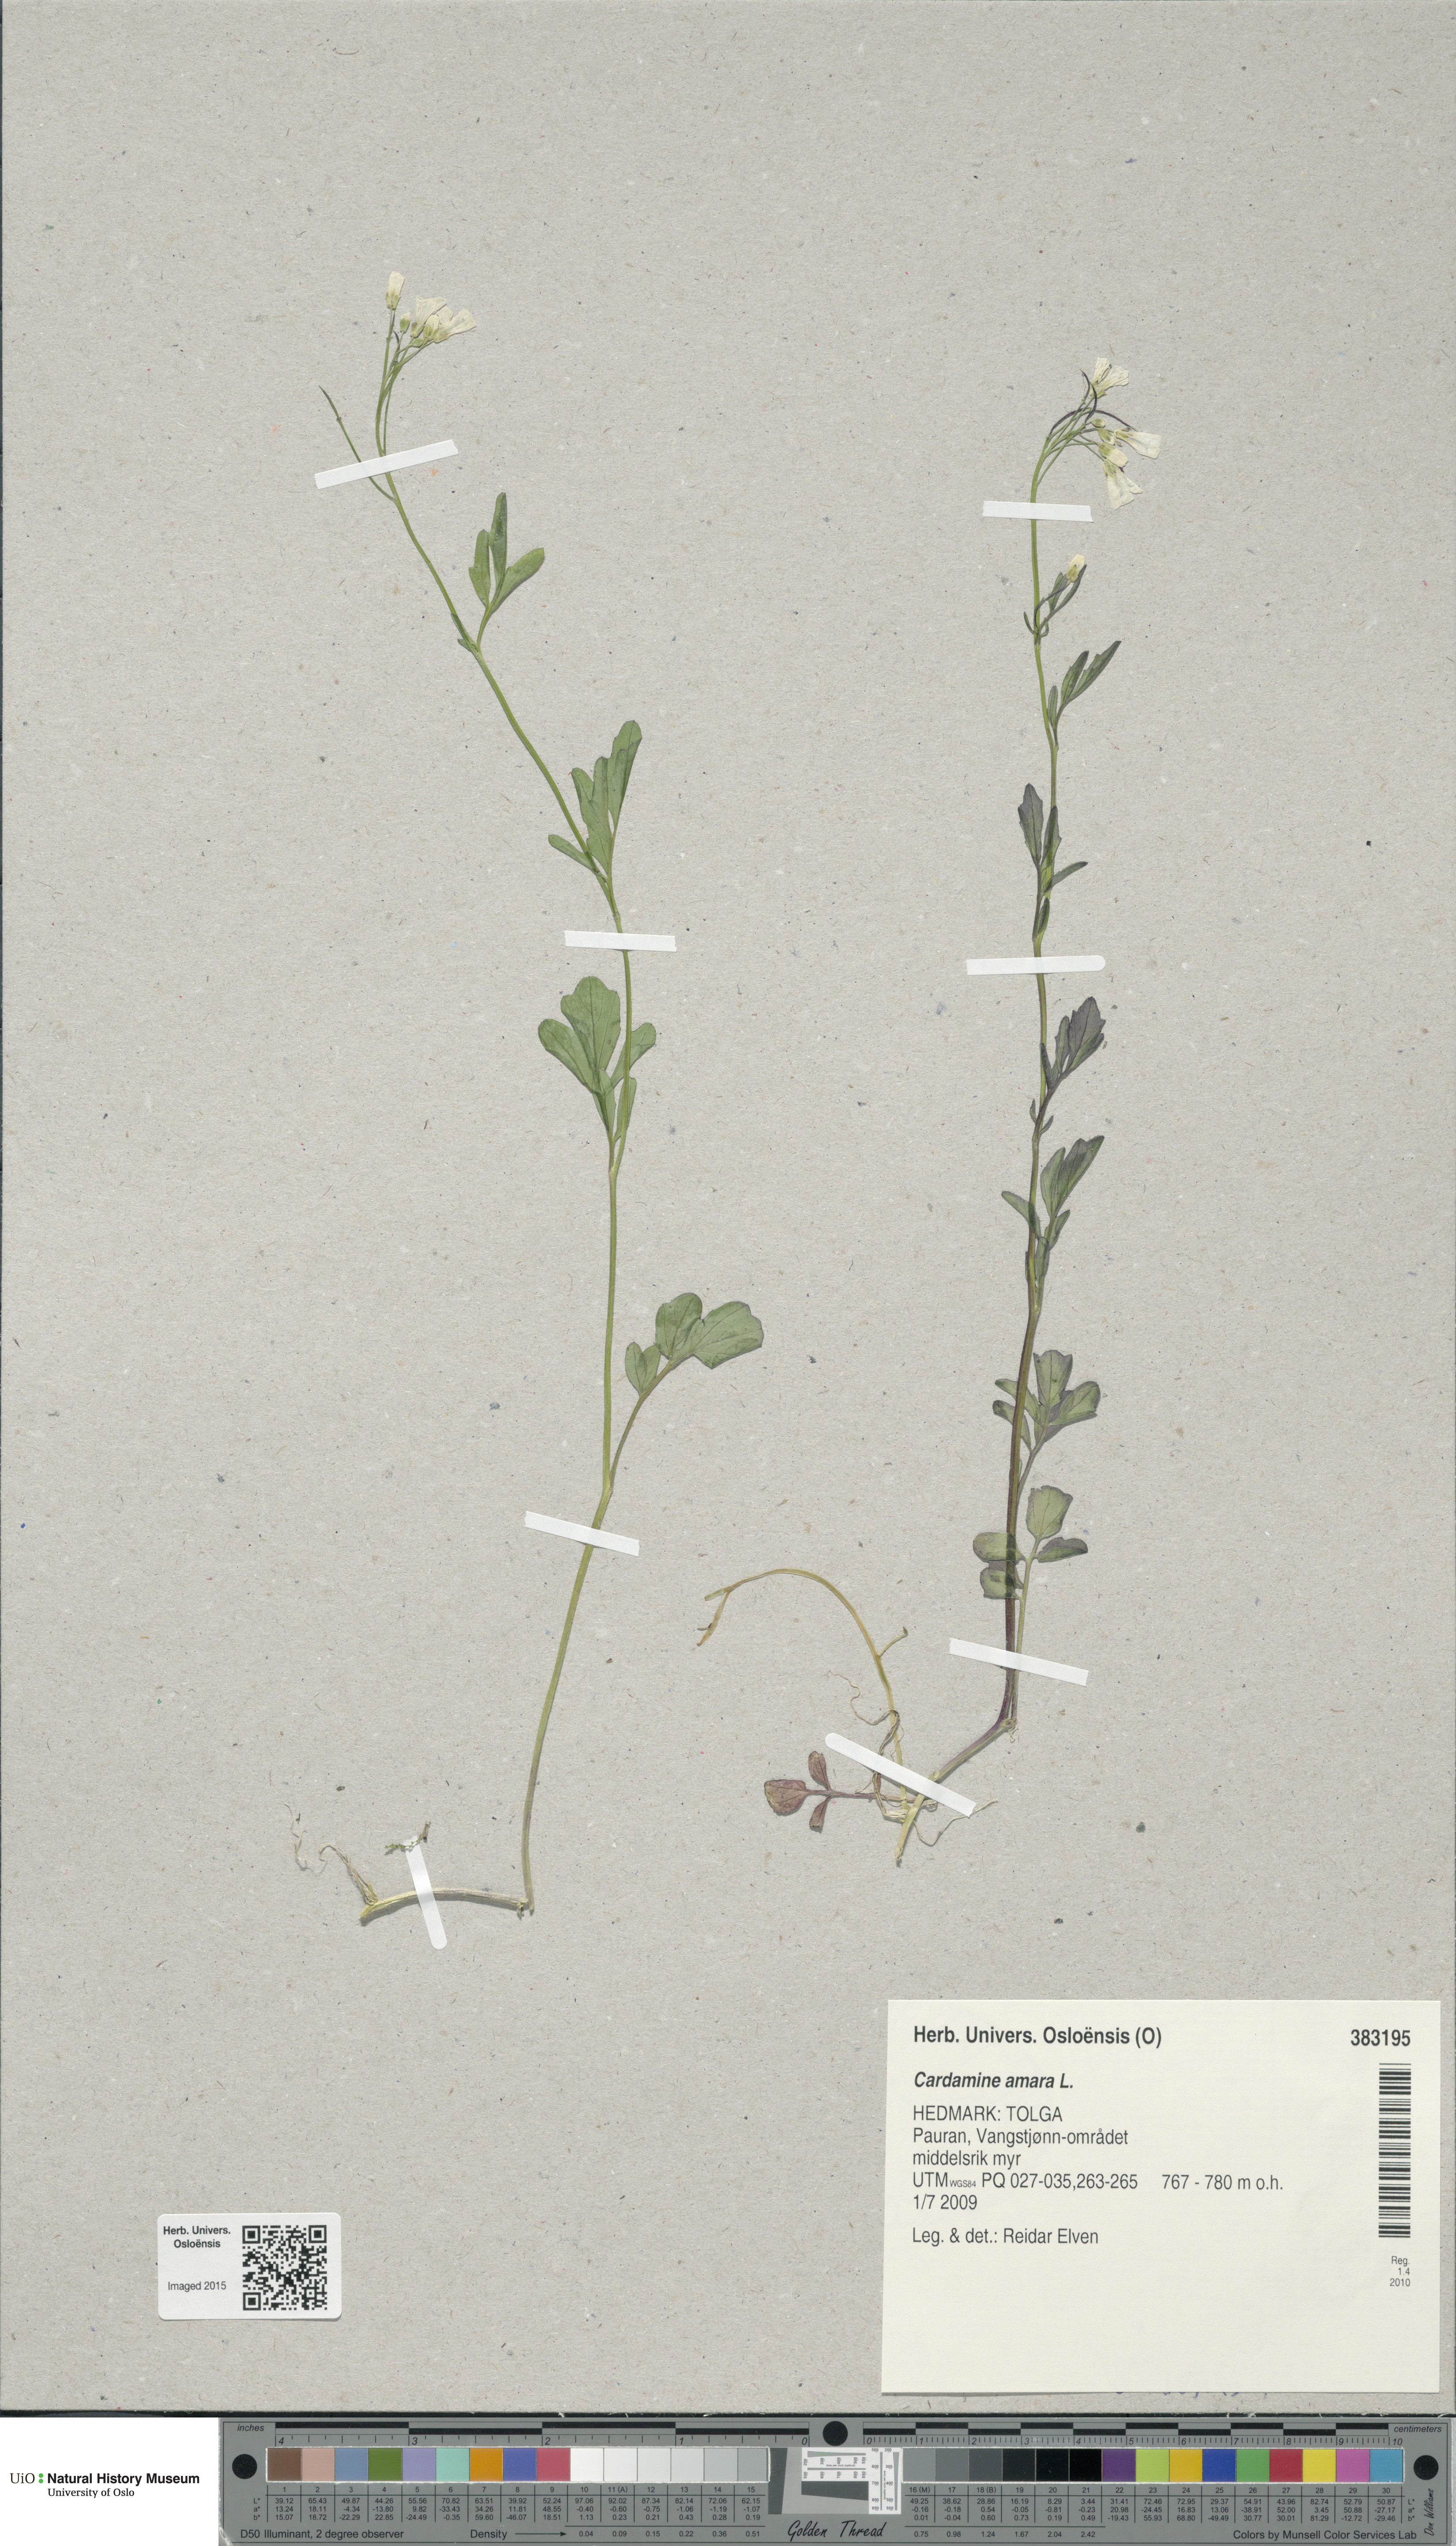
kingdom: Plantae
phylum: Tracheophyta
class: Magnoliopsida
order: Brassicales
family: Brassicaceae
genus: Cardamine
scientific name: Cardamine amara
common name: Large bitter-cress
